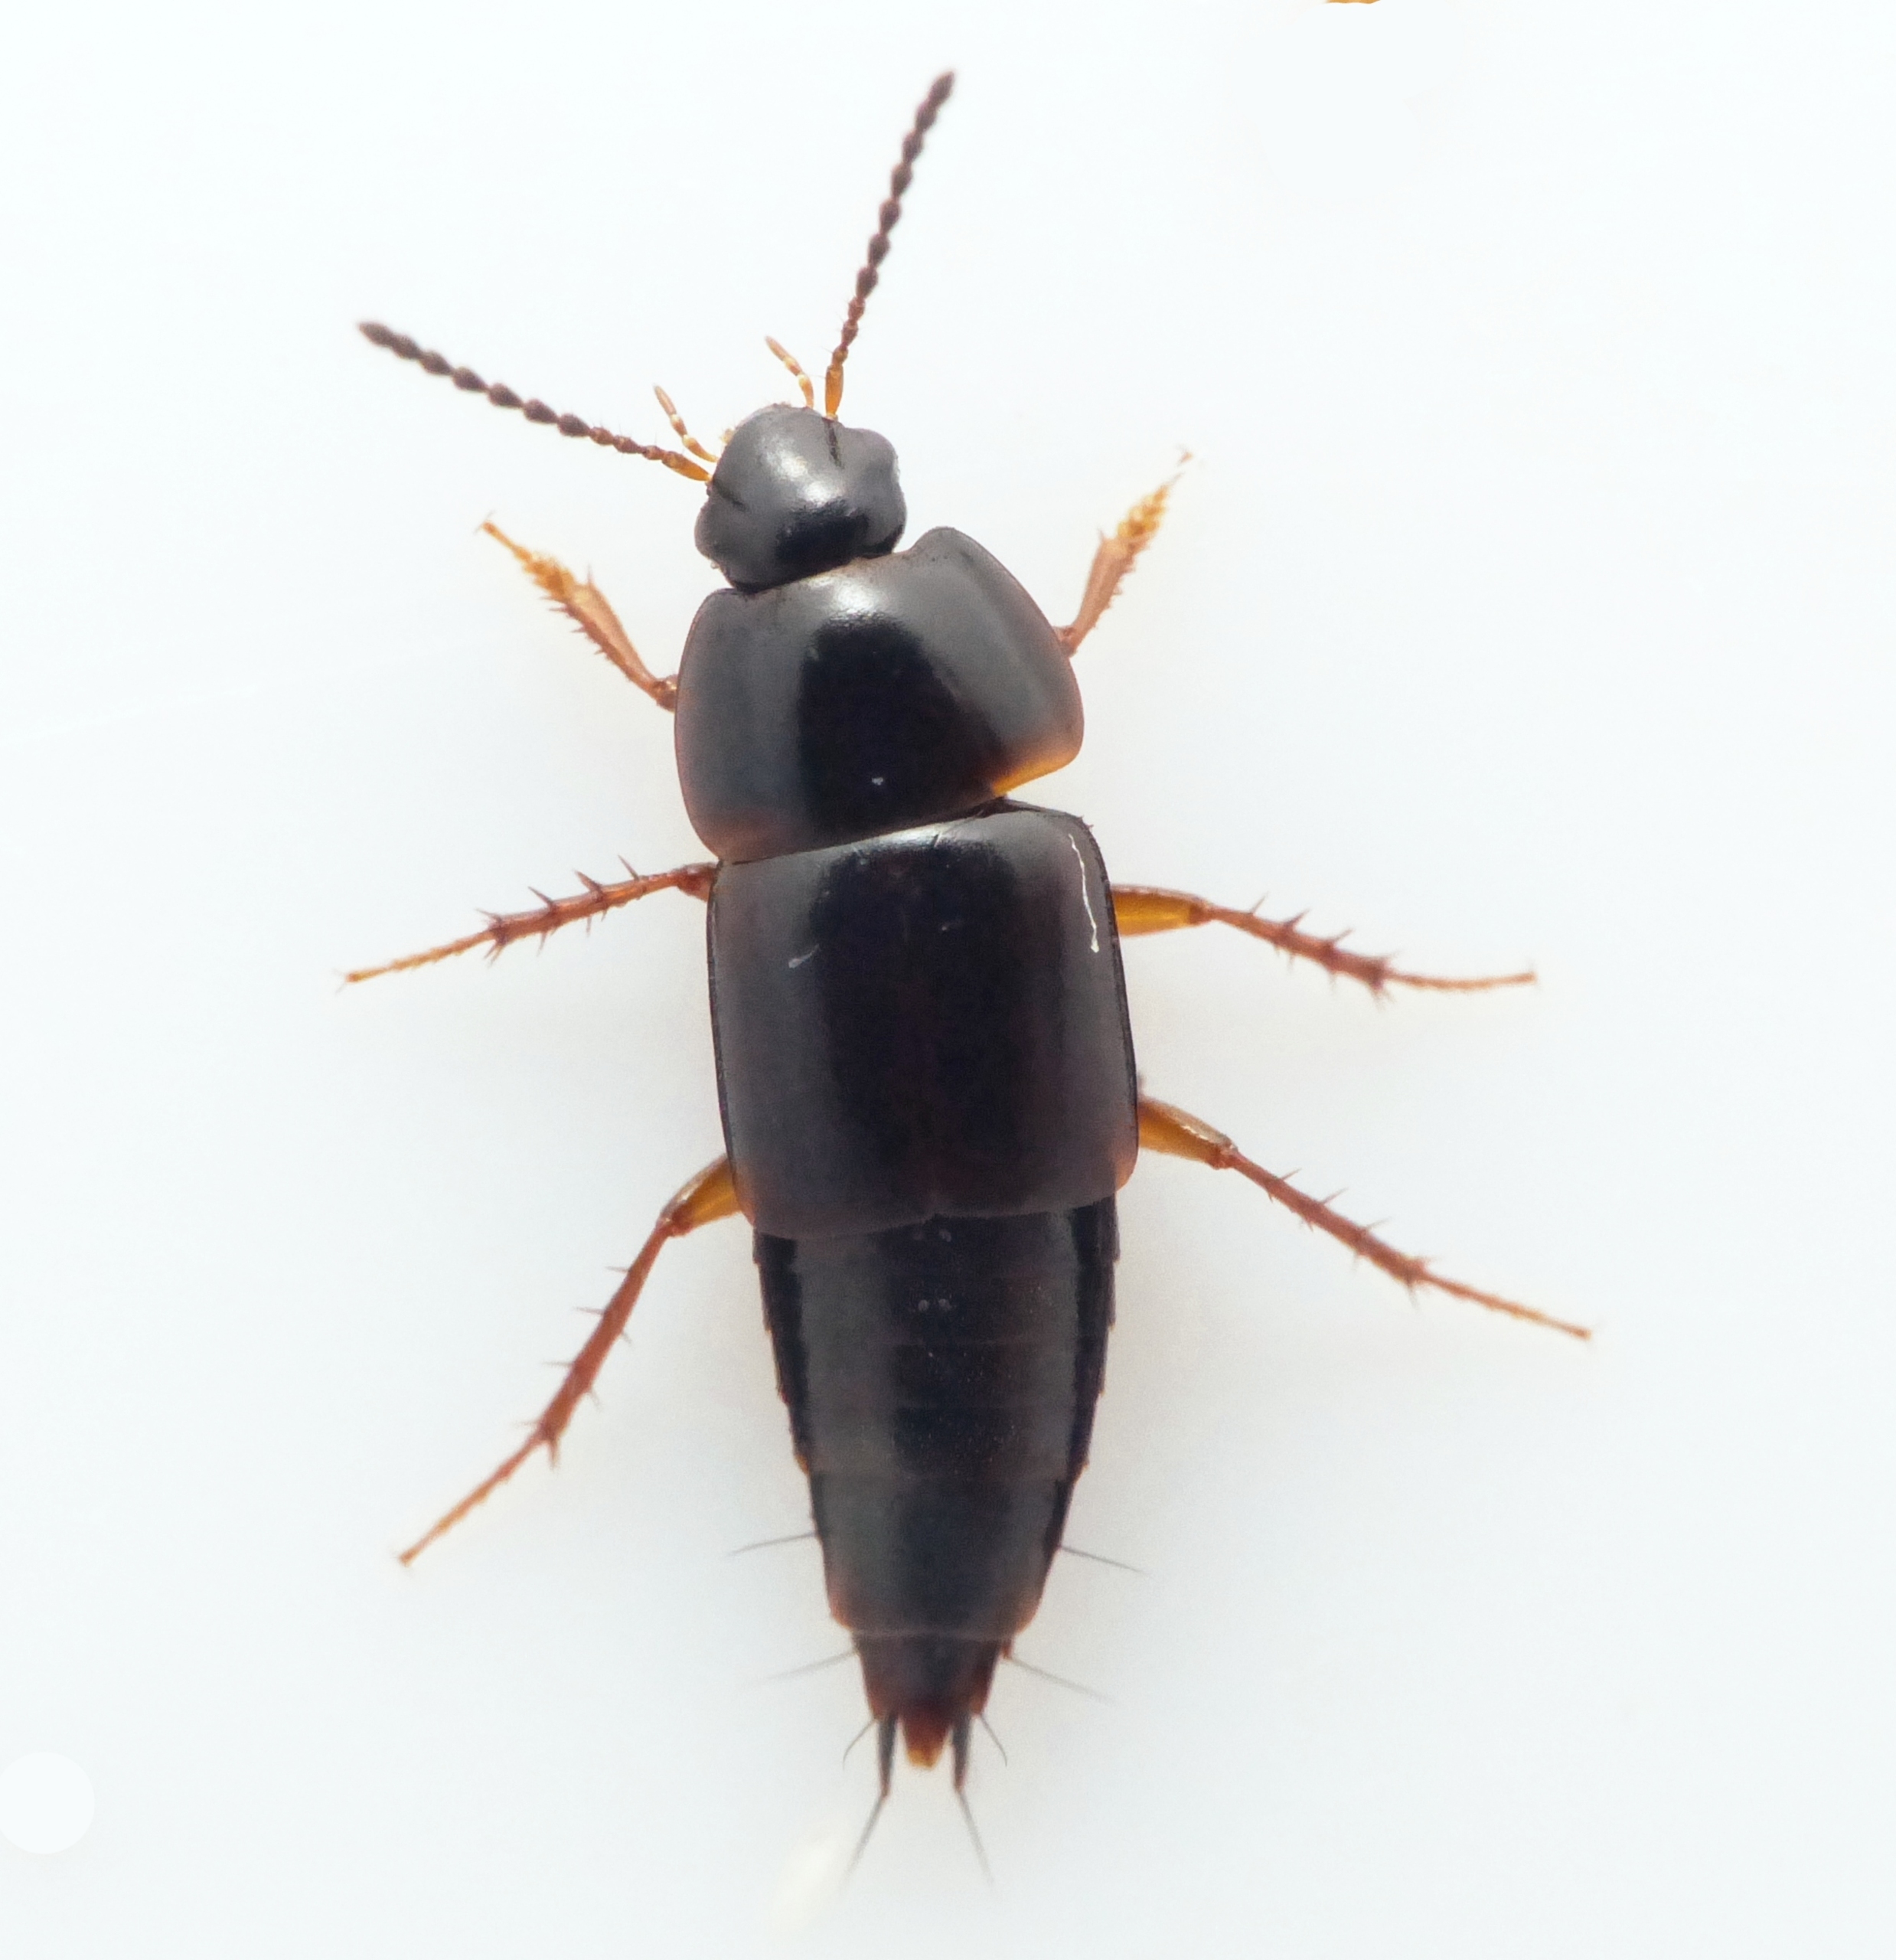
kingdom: Animalia
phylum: Arthropoda
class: Insecta
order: Coleoptera
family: Staphylinidae
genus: Tachinus
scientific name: Tachinus rufipes
